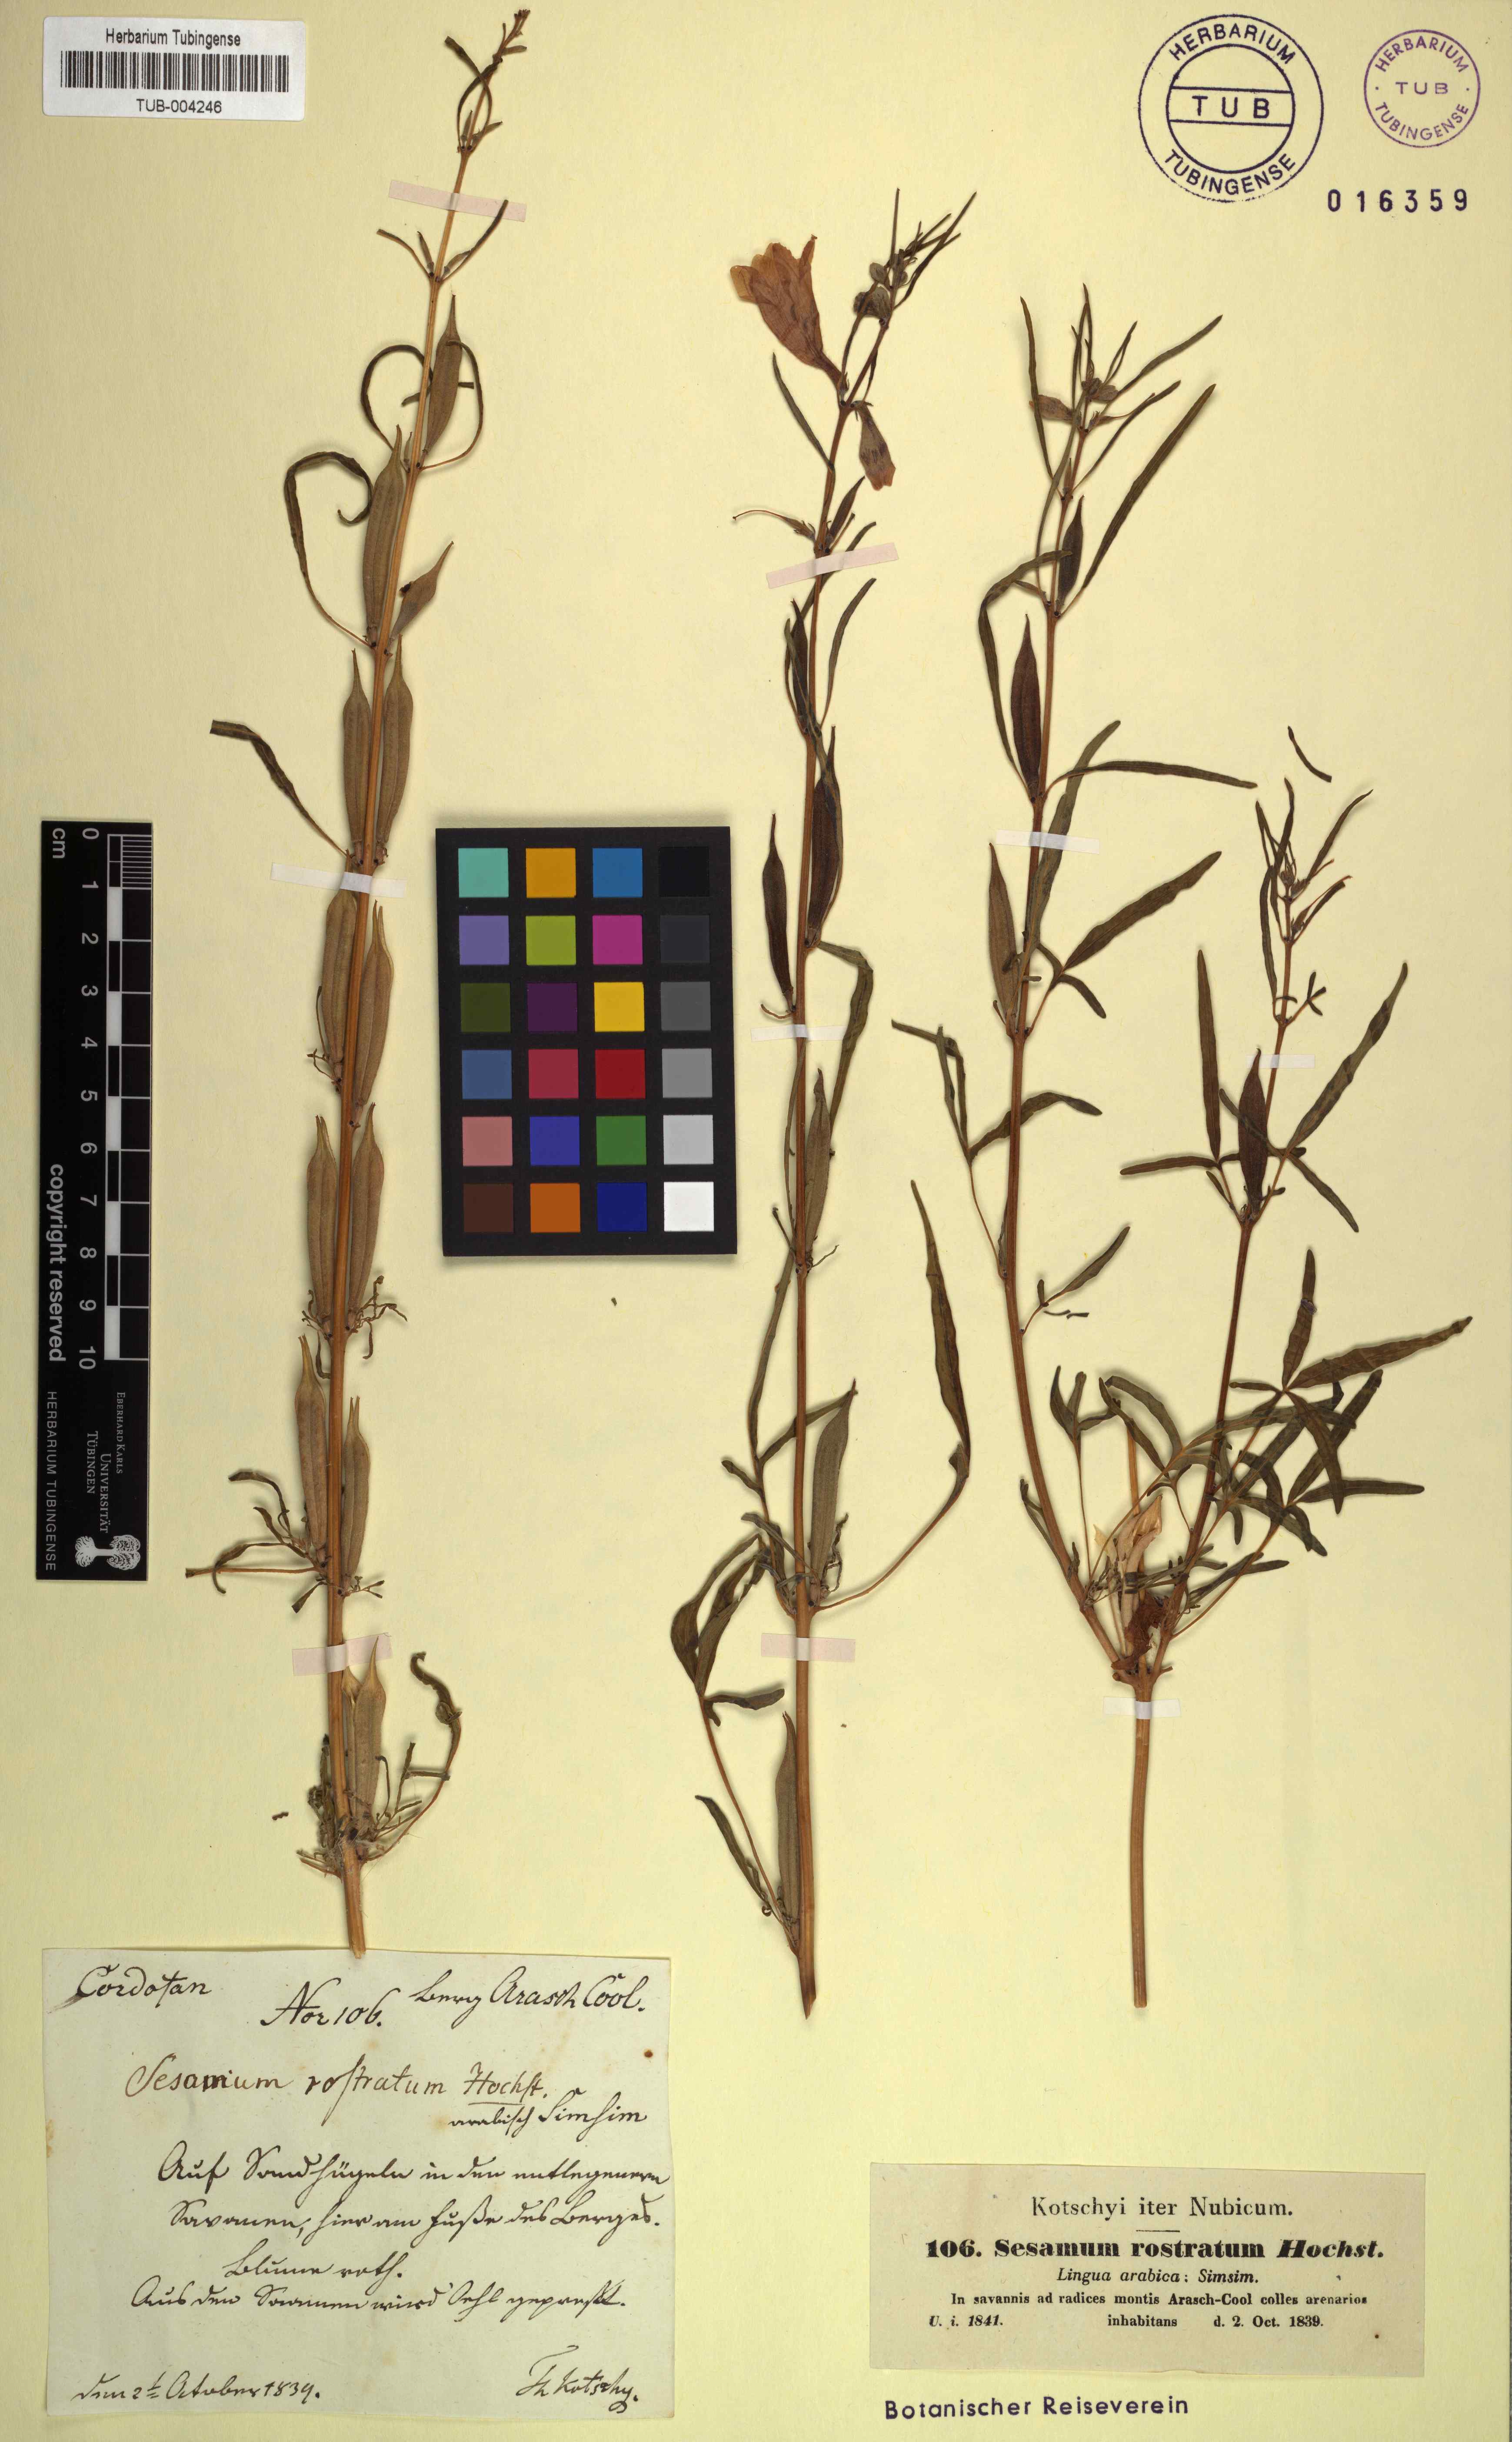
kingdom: Plantae
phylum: Tracheophyta
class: Magnoliopsida
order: Lamiales
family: Pedaliaceae
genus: Sesamum
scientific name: Sesamum alatum
